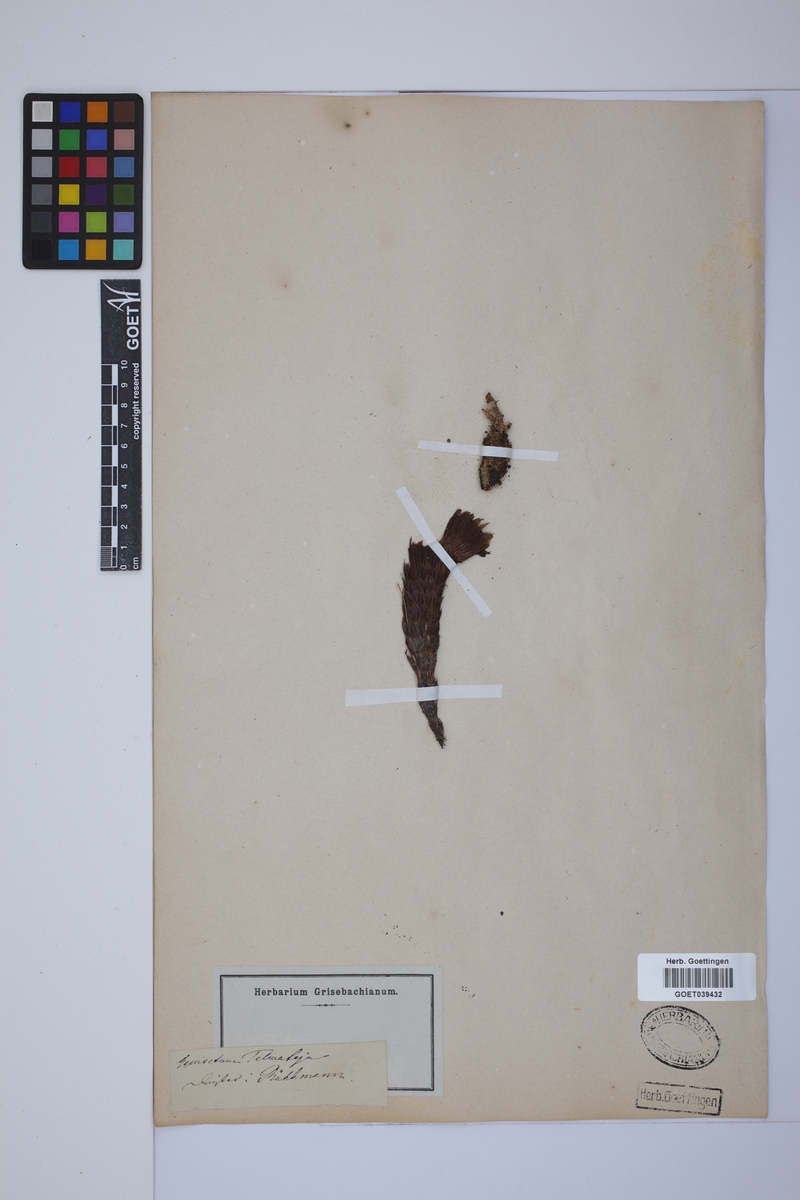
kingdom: Plantae
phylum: Tracheophyta
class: Polypodiopsida
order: Equisetales
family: Equisetaceae
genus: Equisetum
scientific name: Equisetum telmateia
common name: Great horsetail
